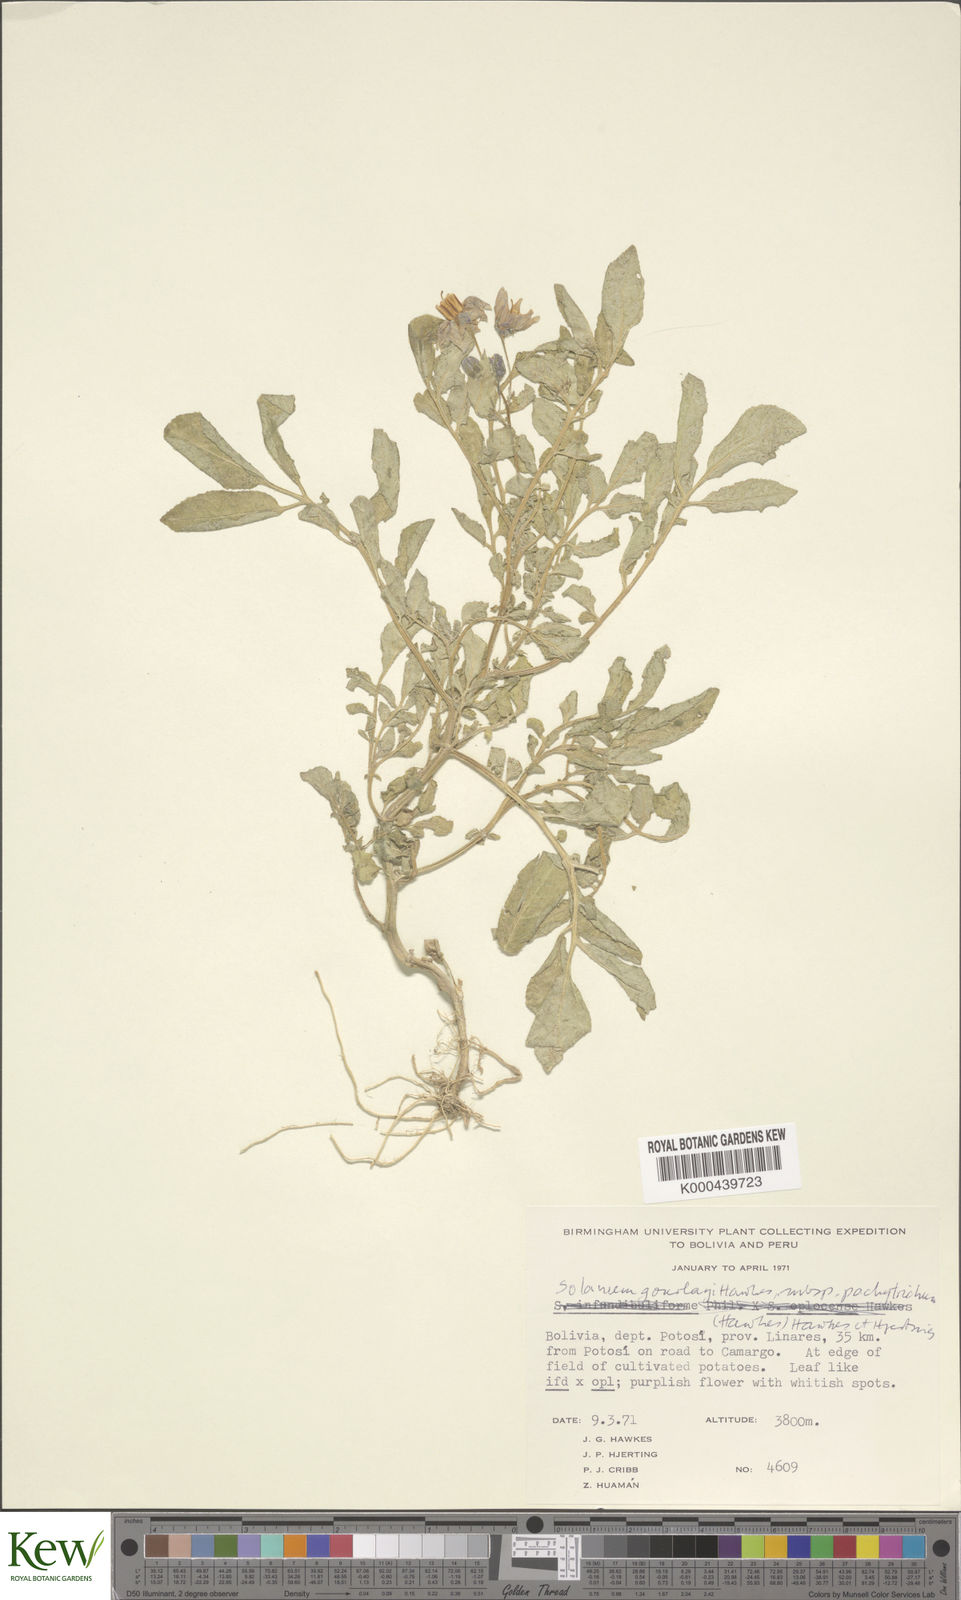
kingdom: Plantae
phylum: Tracheophyta
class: Magnoliopsida
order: Solanales
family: Solanaceae
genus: Solanum
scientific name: Solanum brevicaule
